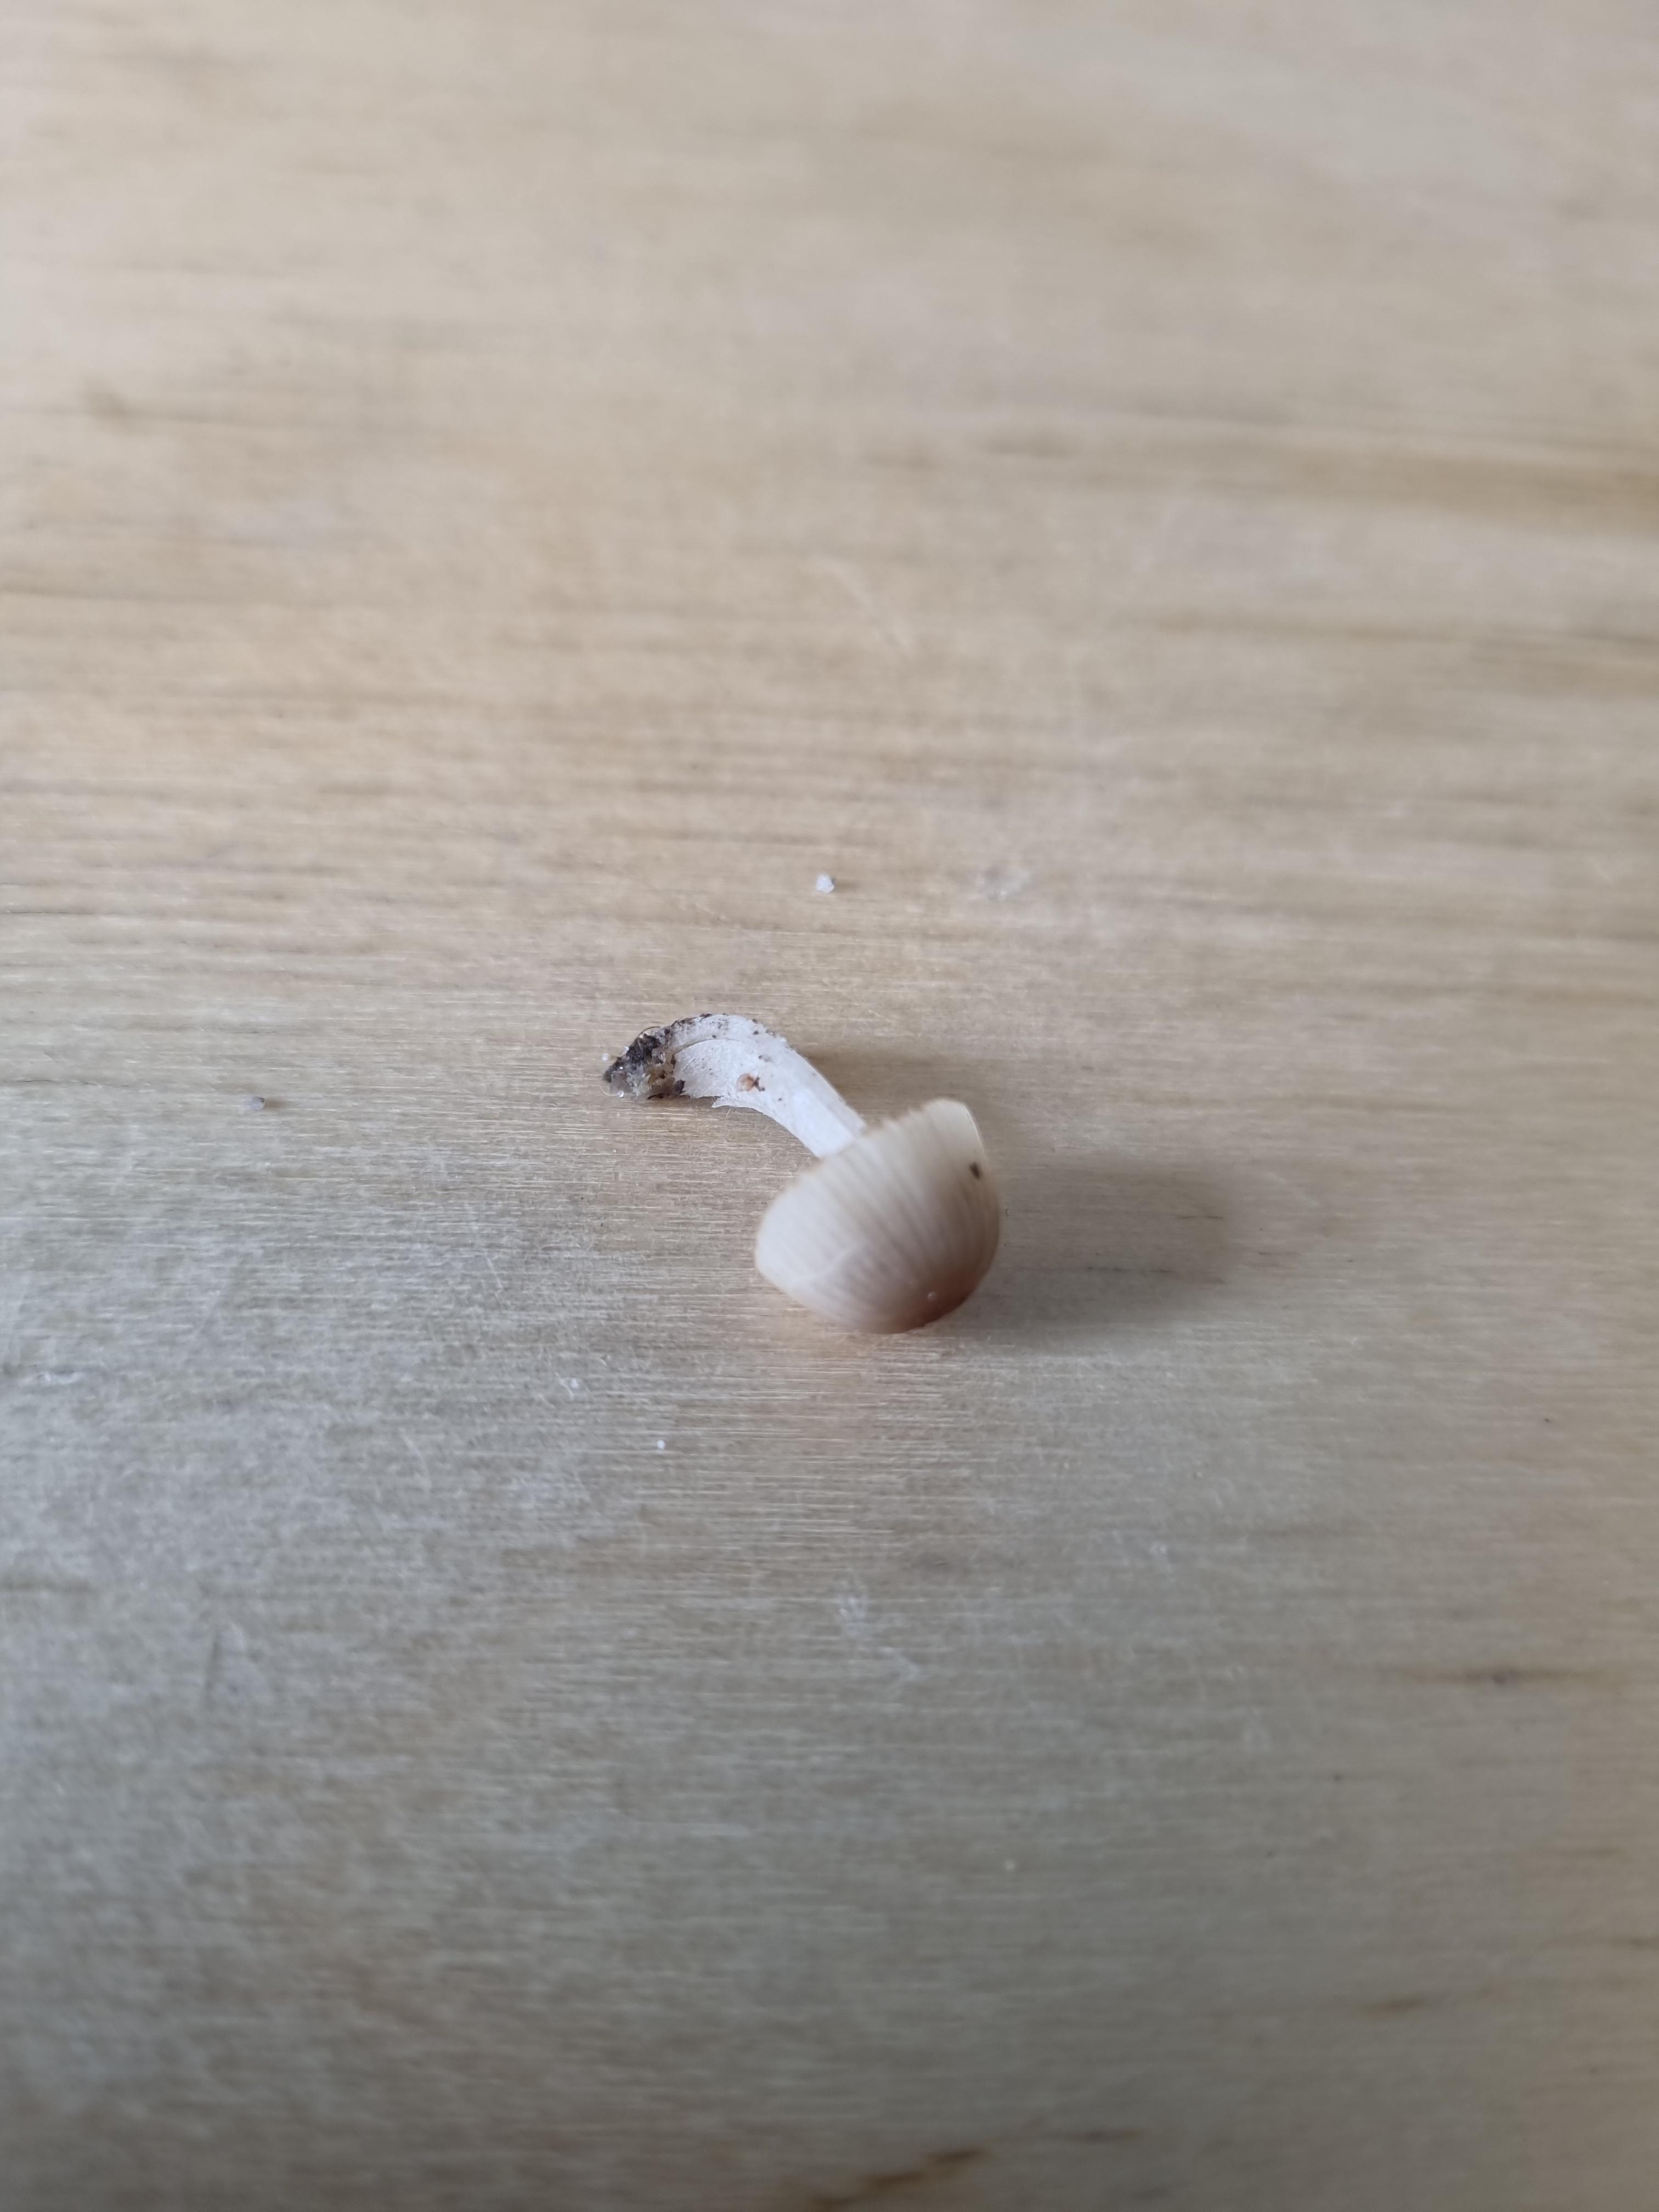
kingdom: Fungi
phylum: Basidiomycota
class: Agaricomycetes
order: Agaricales
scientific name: Agaricales
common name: champignonordenen
